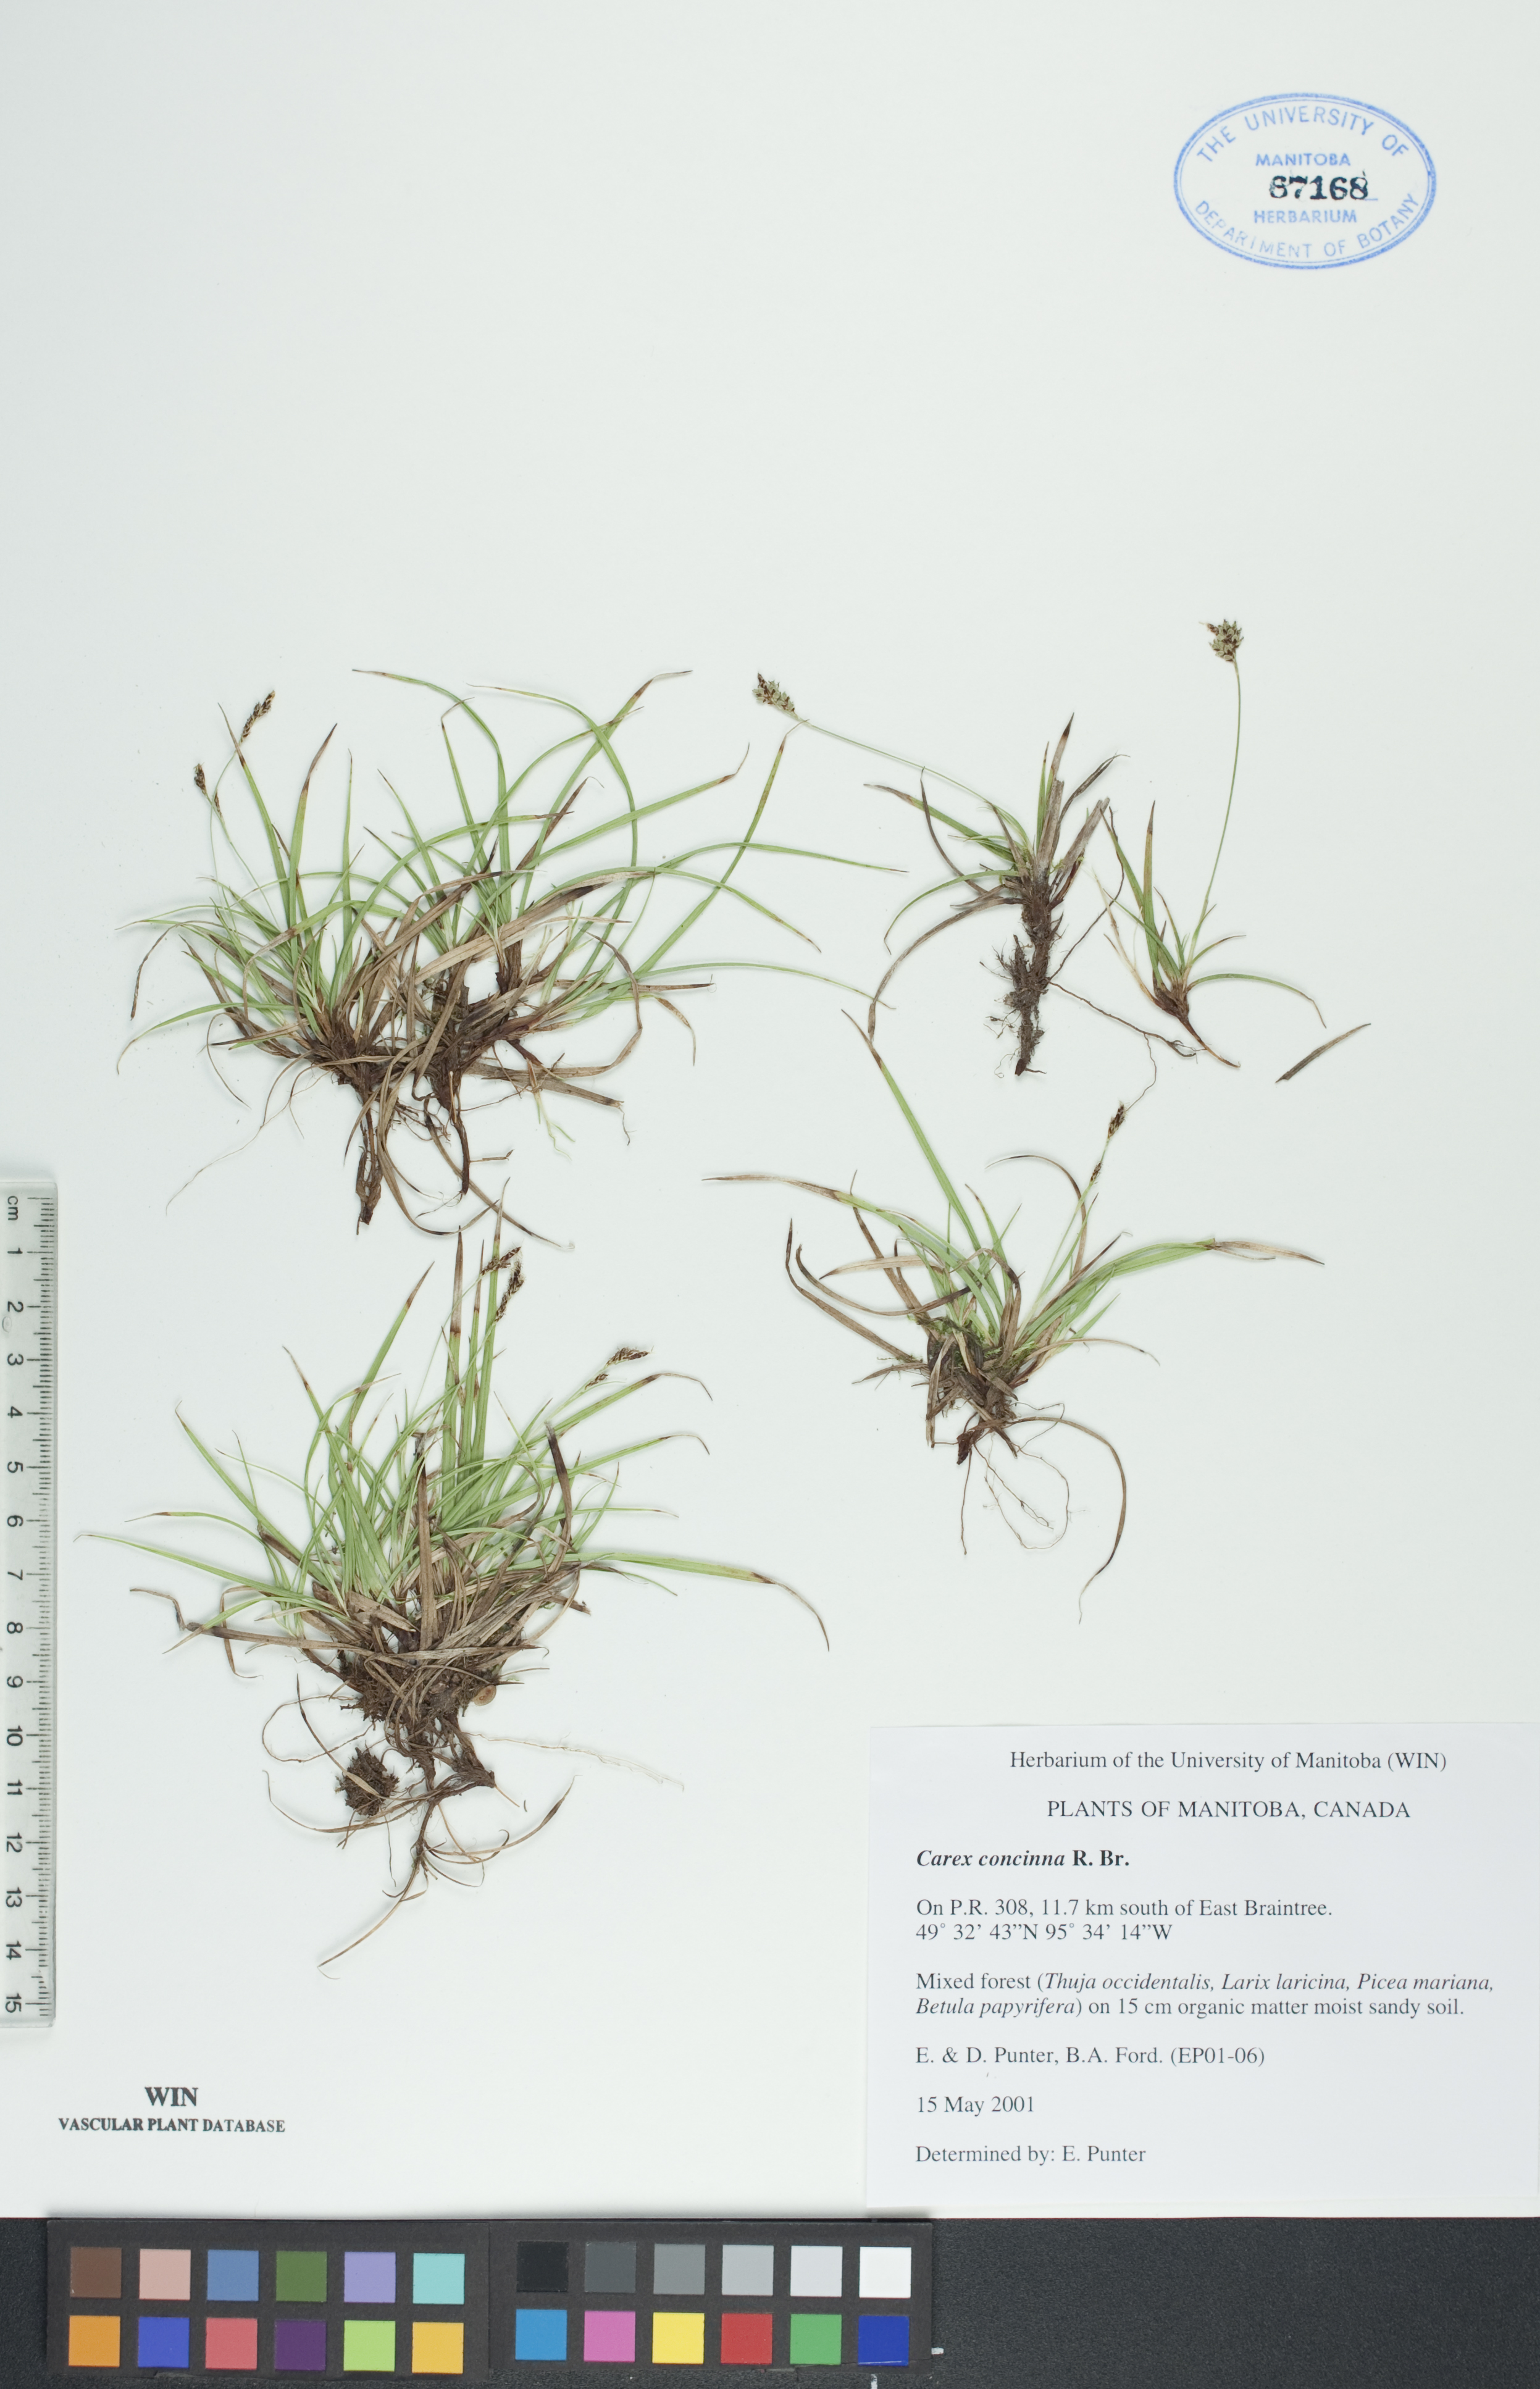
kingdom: Plantae
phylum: Tracheophyta
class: Liliopsida
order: Poales
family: Cyperaceae
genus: Carex
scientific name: Carex concinna
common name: Beautiful sedge
